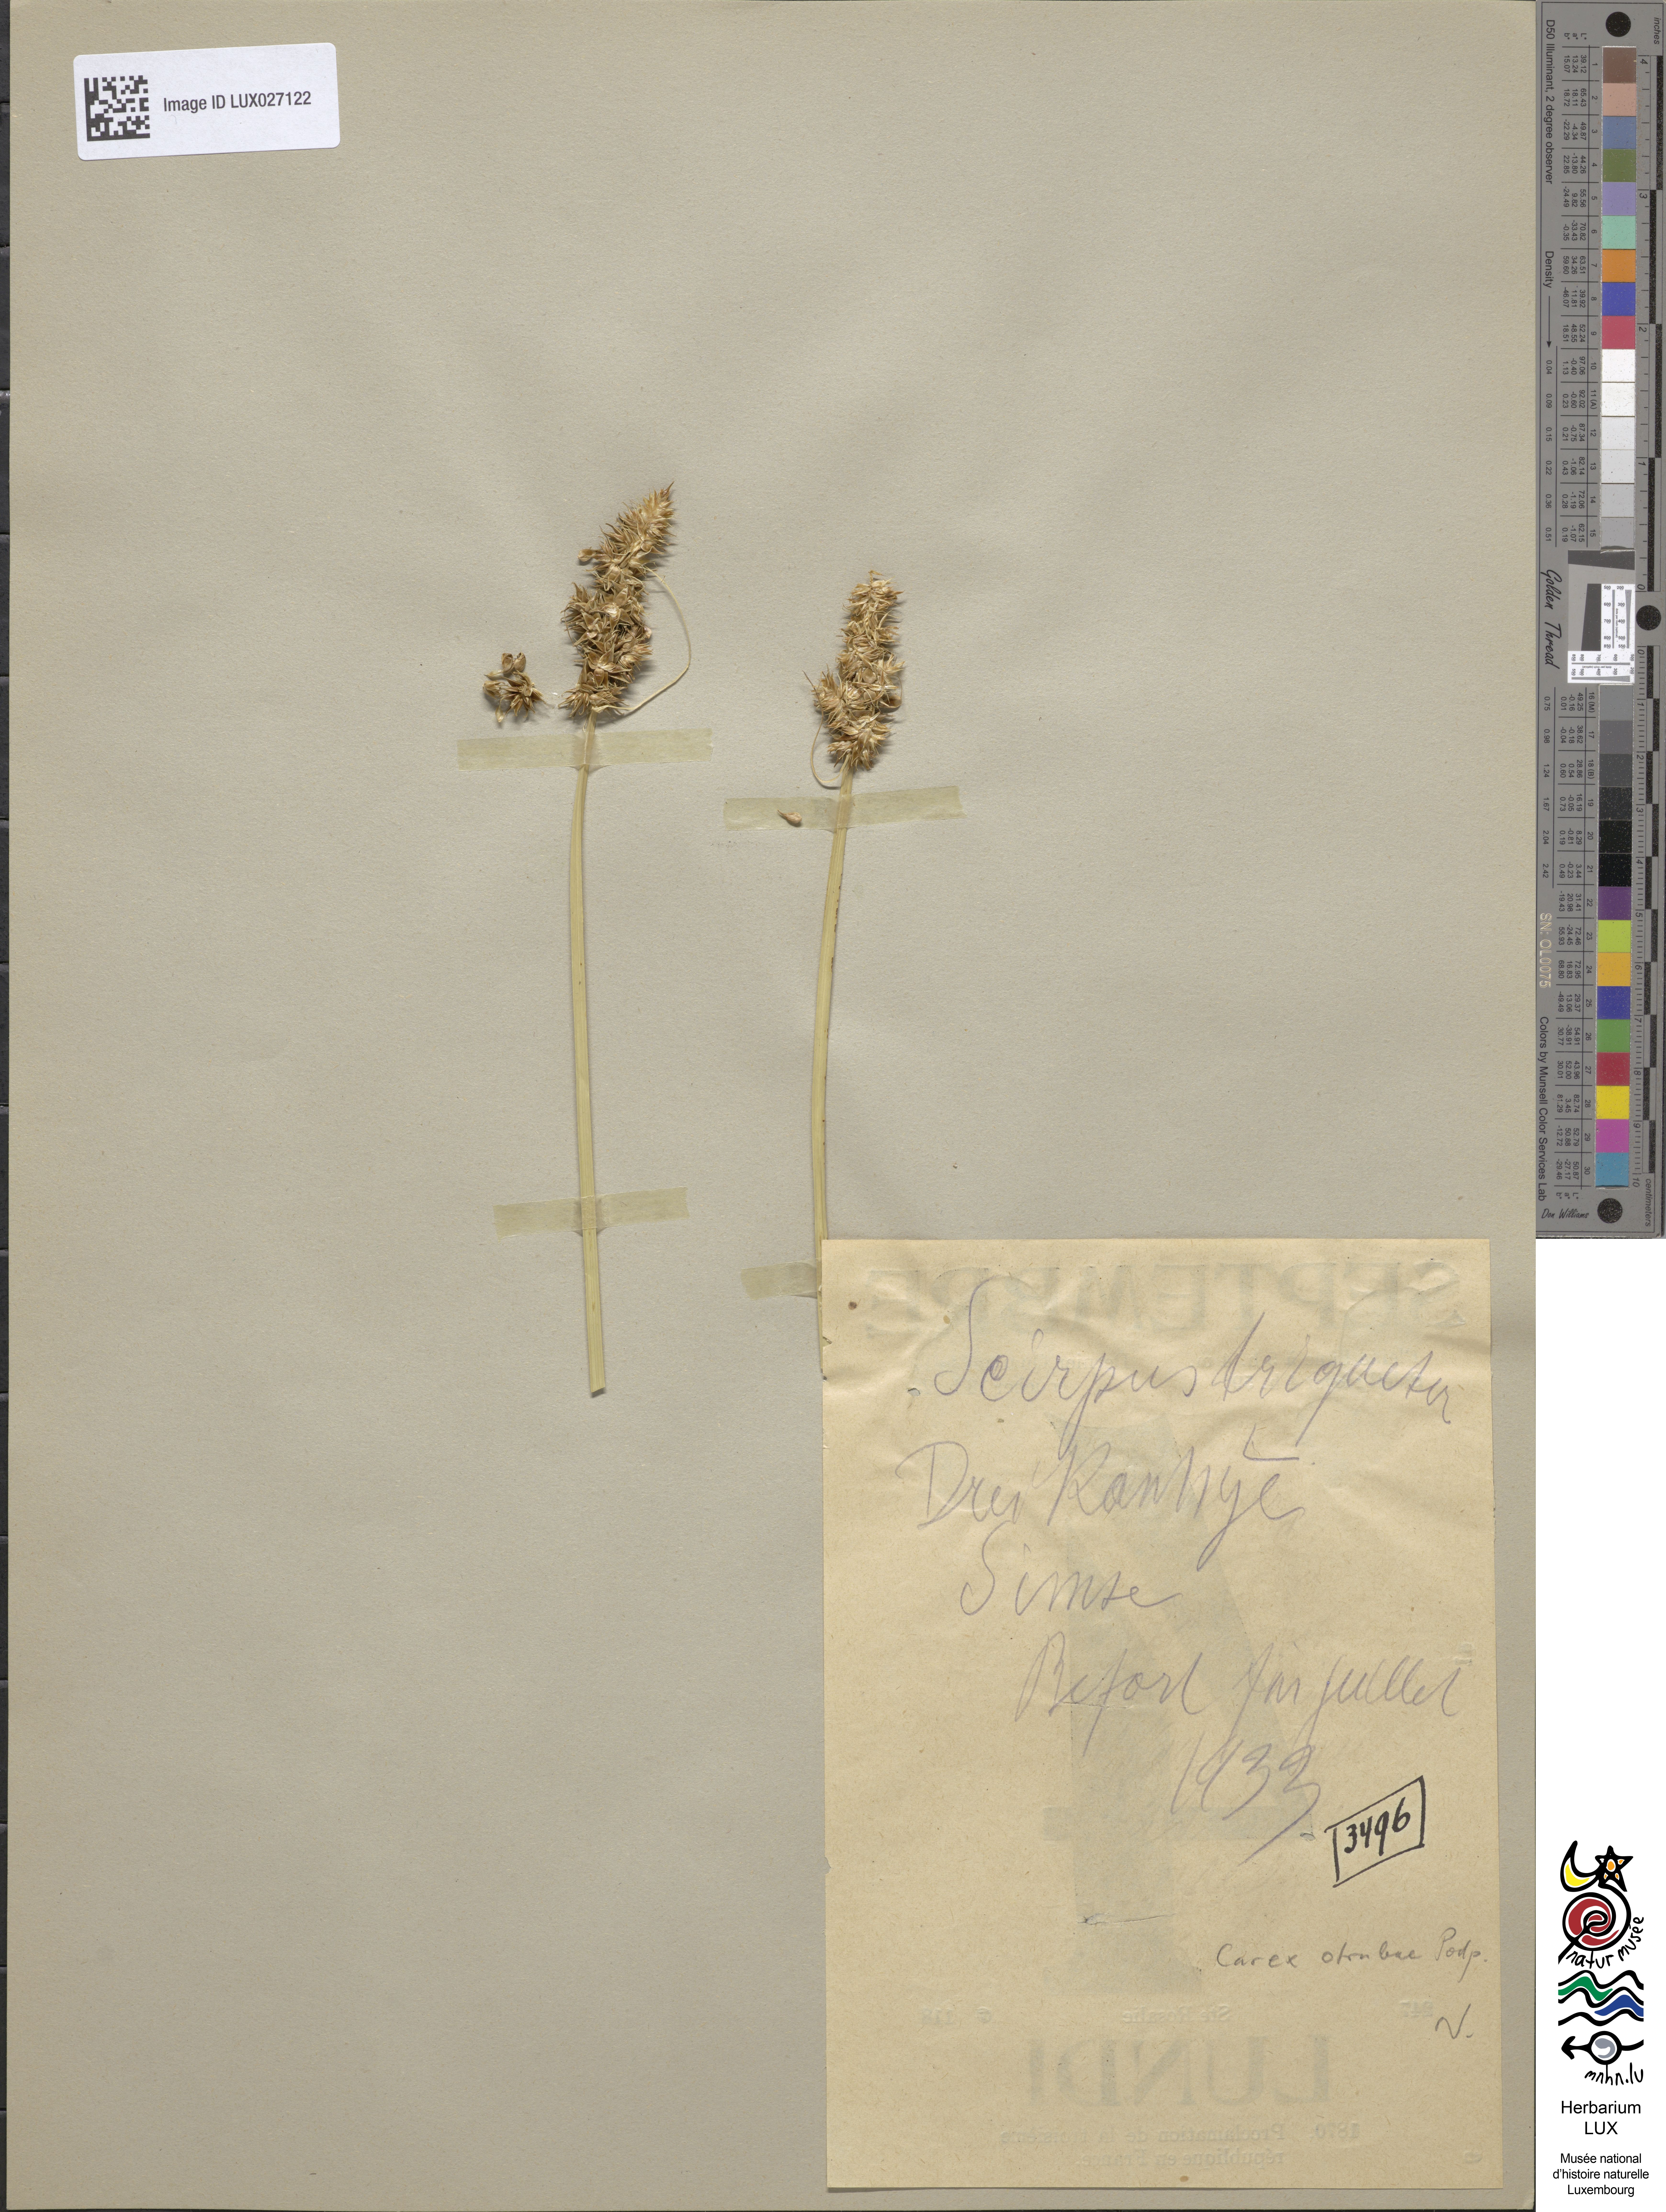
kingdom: Plantae
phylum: Tracheophyta
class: Liliopsida
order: Poales
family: Cyperaceae
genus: Schoenoplectus
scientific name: Schoenoplectus triqueter
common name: Triangular club-rush
